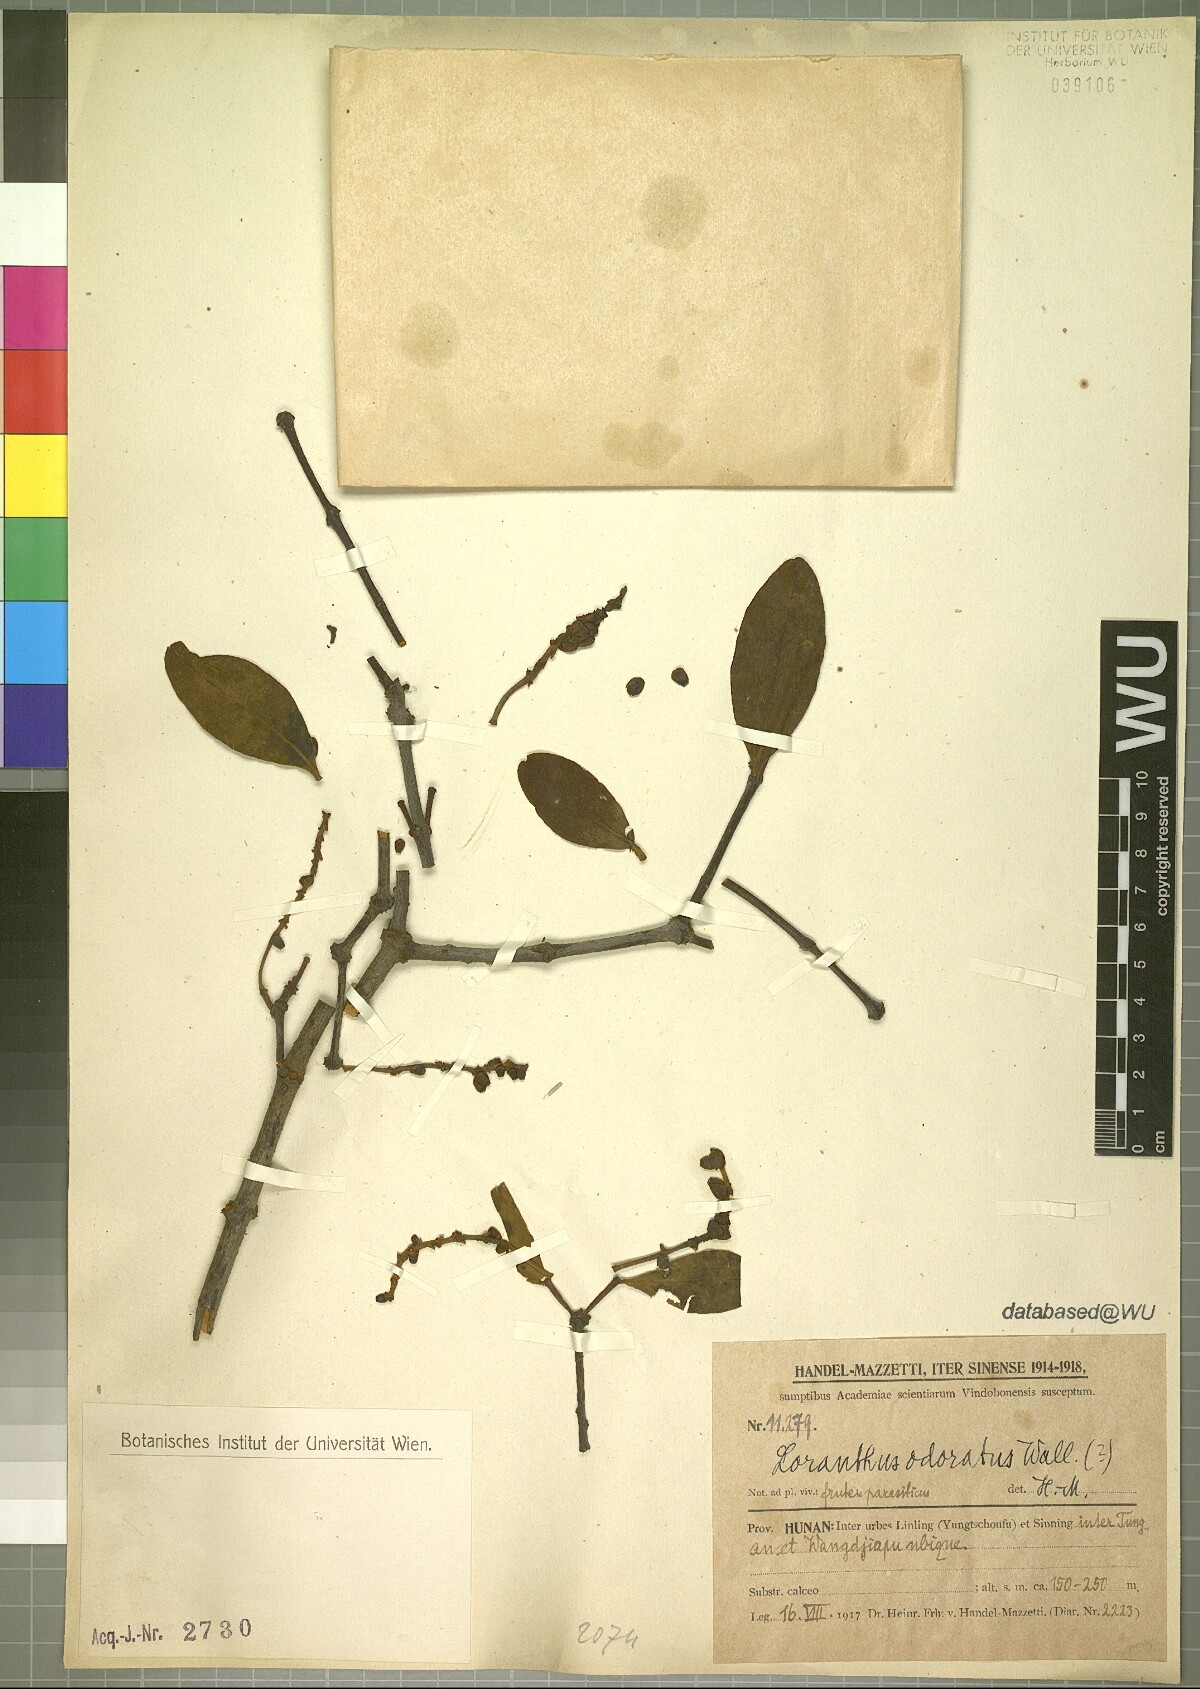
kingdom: Plantae
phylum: Tracheophyta
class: Magnoliopsida
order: Santalales
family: Loranthaceae
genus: Helixanthera
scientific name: Helixanthera odorata
